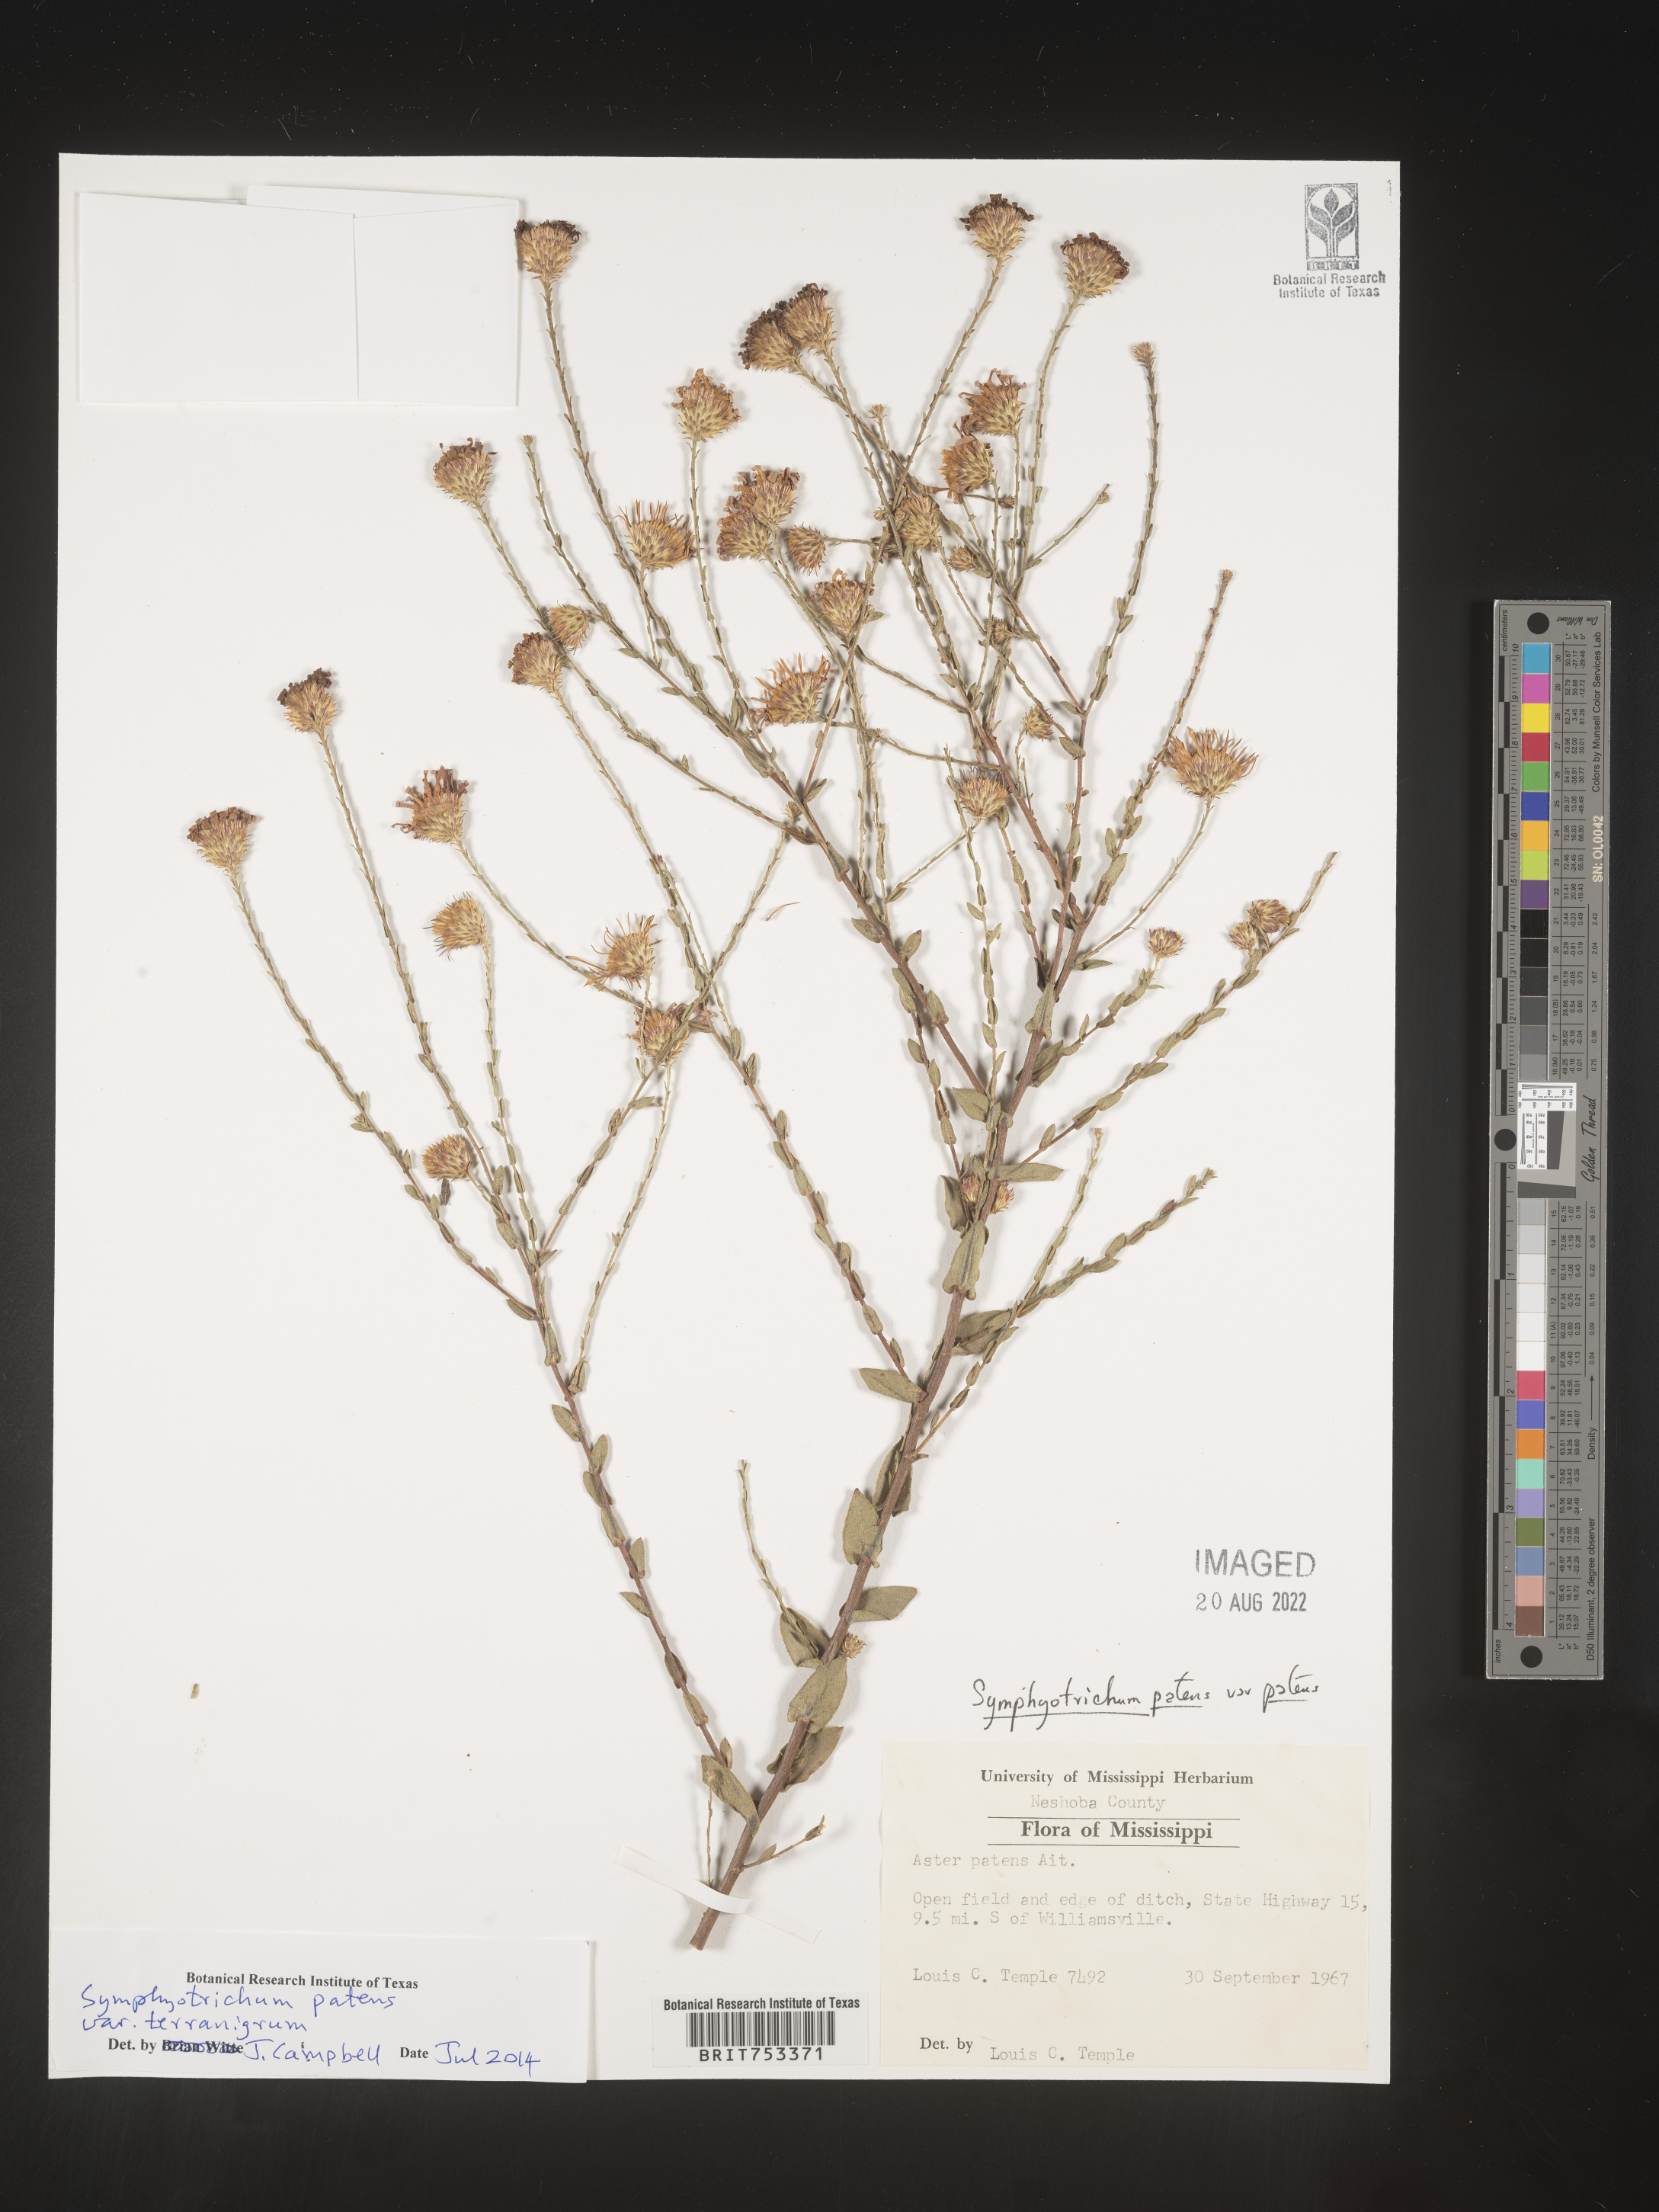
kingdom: Plantae
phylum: Tracheophyta
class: Magnoliopsida
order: Asterales
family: Asteraceae
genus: Symphyotrichum
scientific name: Symphyotrichum patens
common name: Late purple aster
